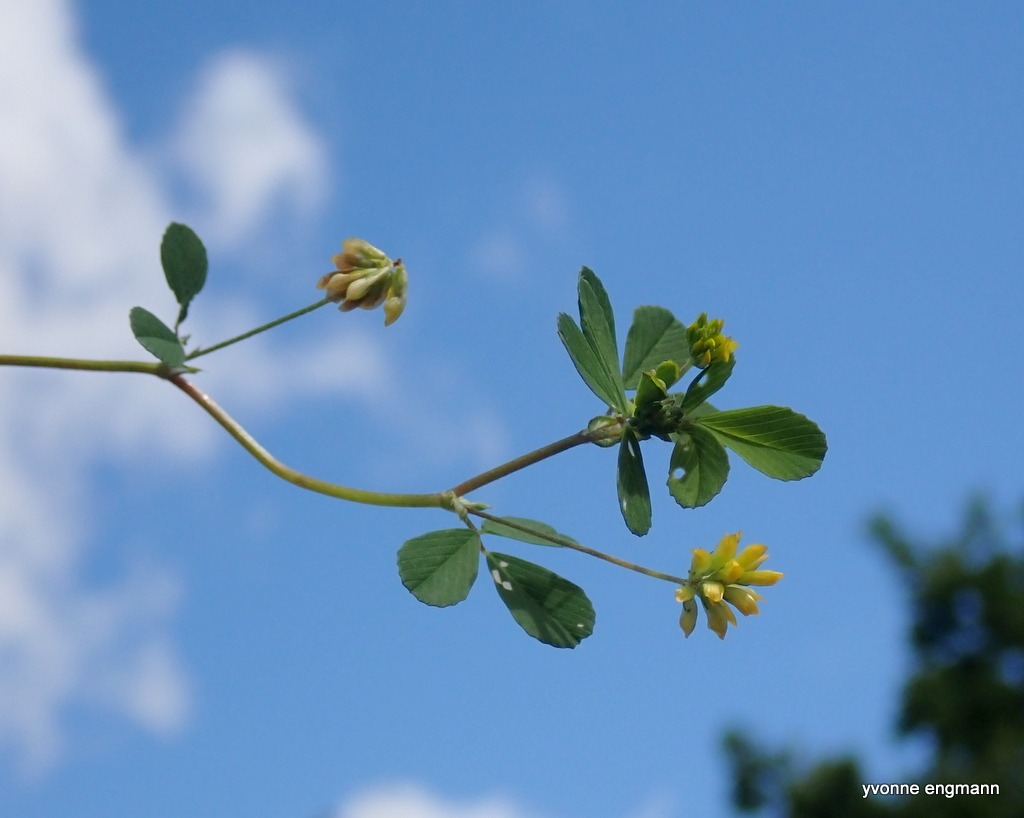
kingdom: Plantae
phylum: Tracheophyta
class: Magnoliopsida
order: Fabales
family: Fabaceae
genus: Trifolium
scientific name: Trifolium dubium
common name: Fin kløver
